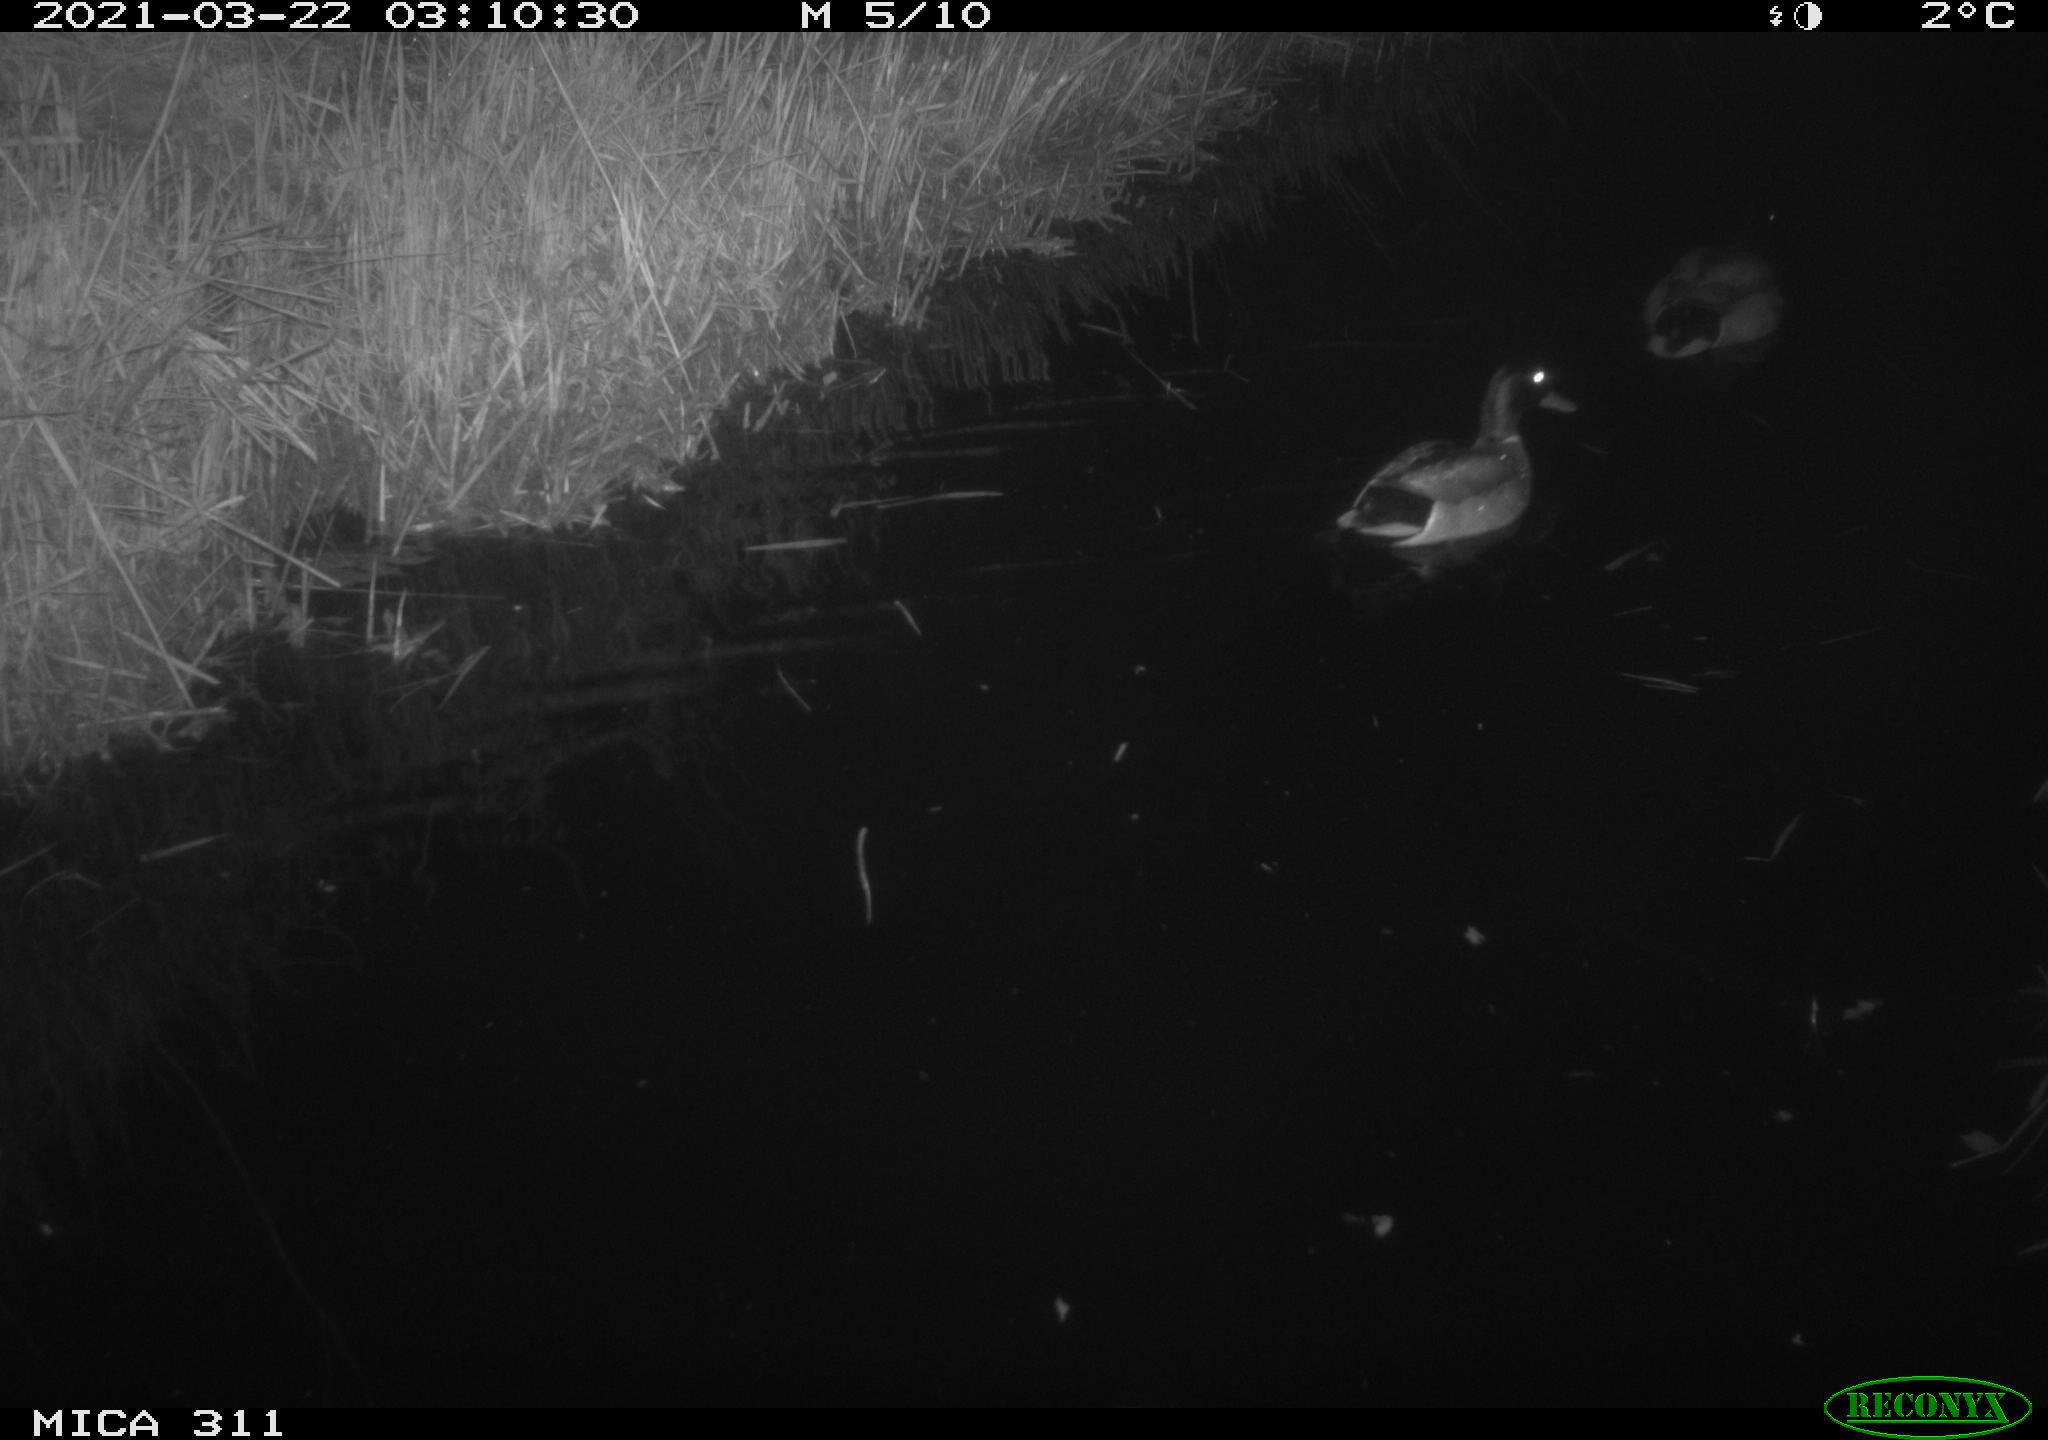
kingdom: Animalia
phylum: Chordata
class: Aves
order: Anseriformes
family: Anatidae
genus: Anas
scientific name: Anas
